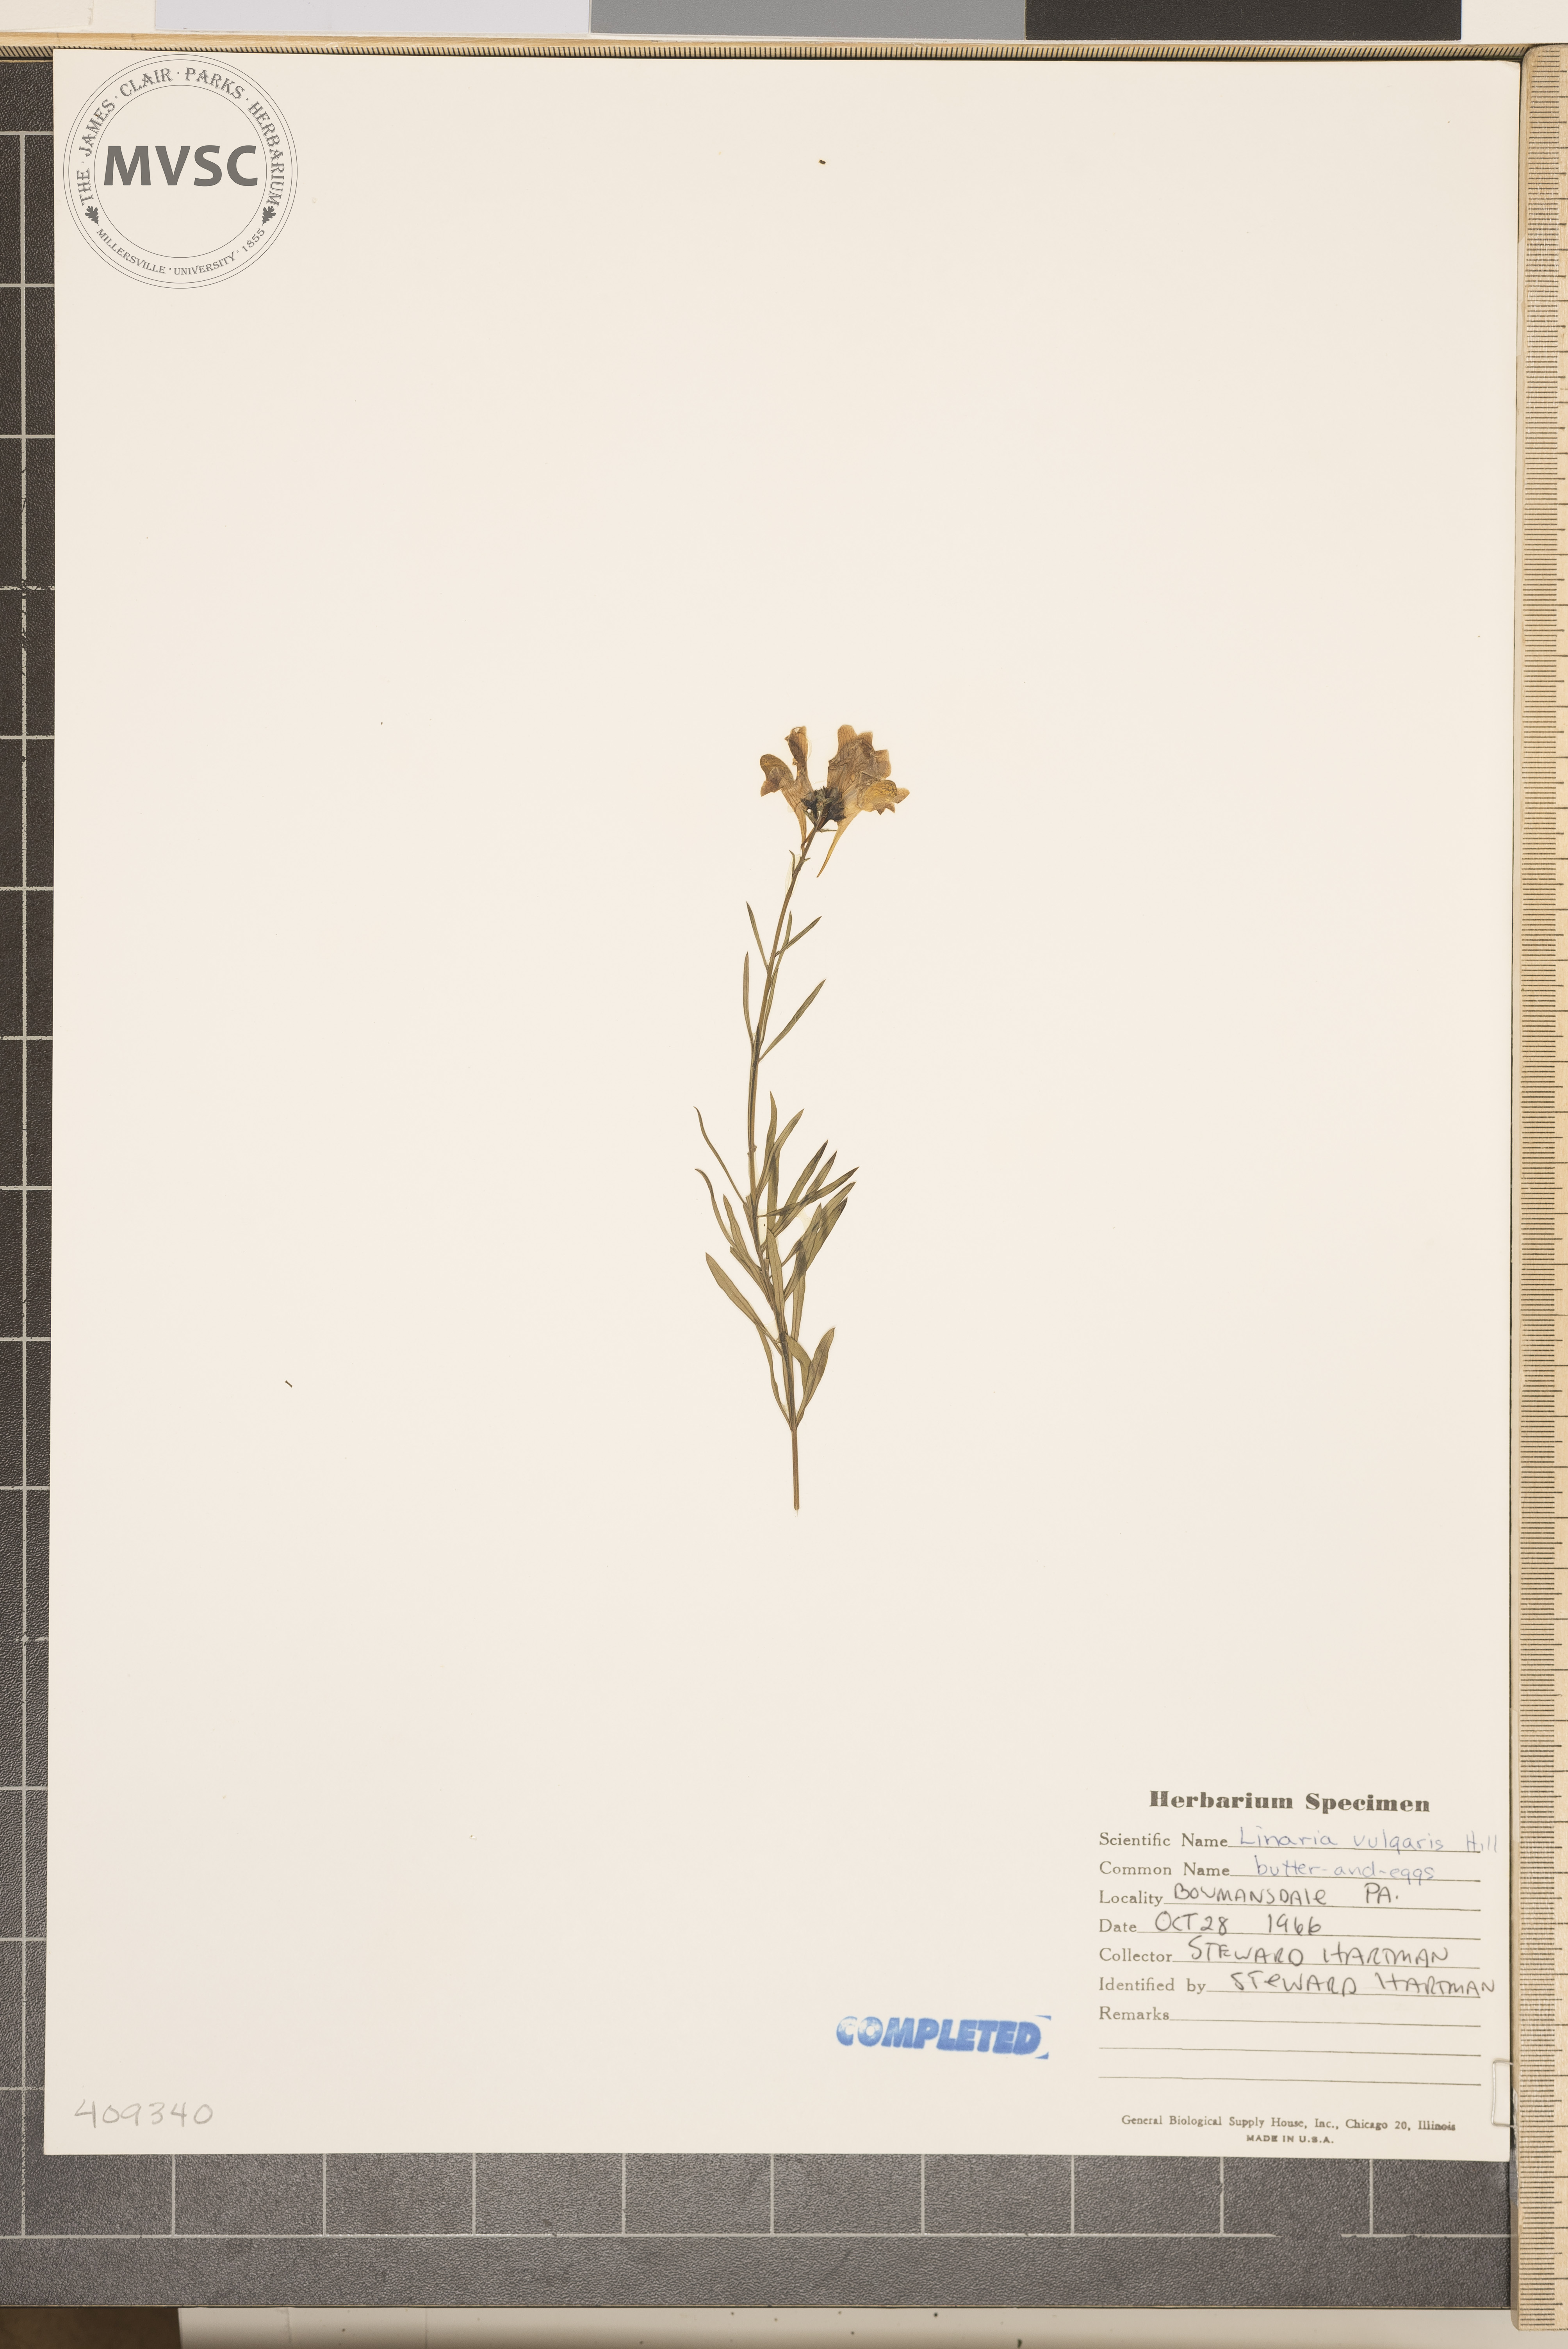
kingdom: Plantae
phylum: Tracheophyta
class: Magnoliopsida
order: Lamiales
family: Plantaginaceae
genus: Linaria
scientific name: Linaria vulgaris
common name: Butter and eggs
